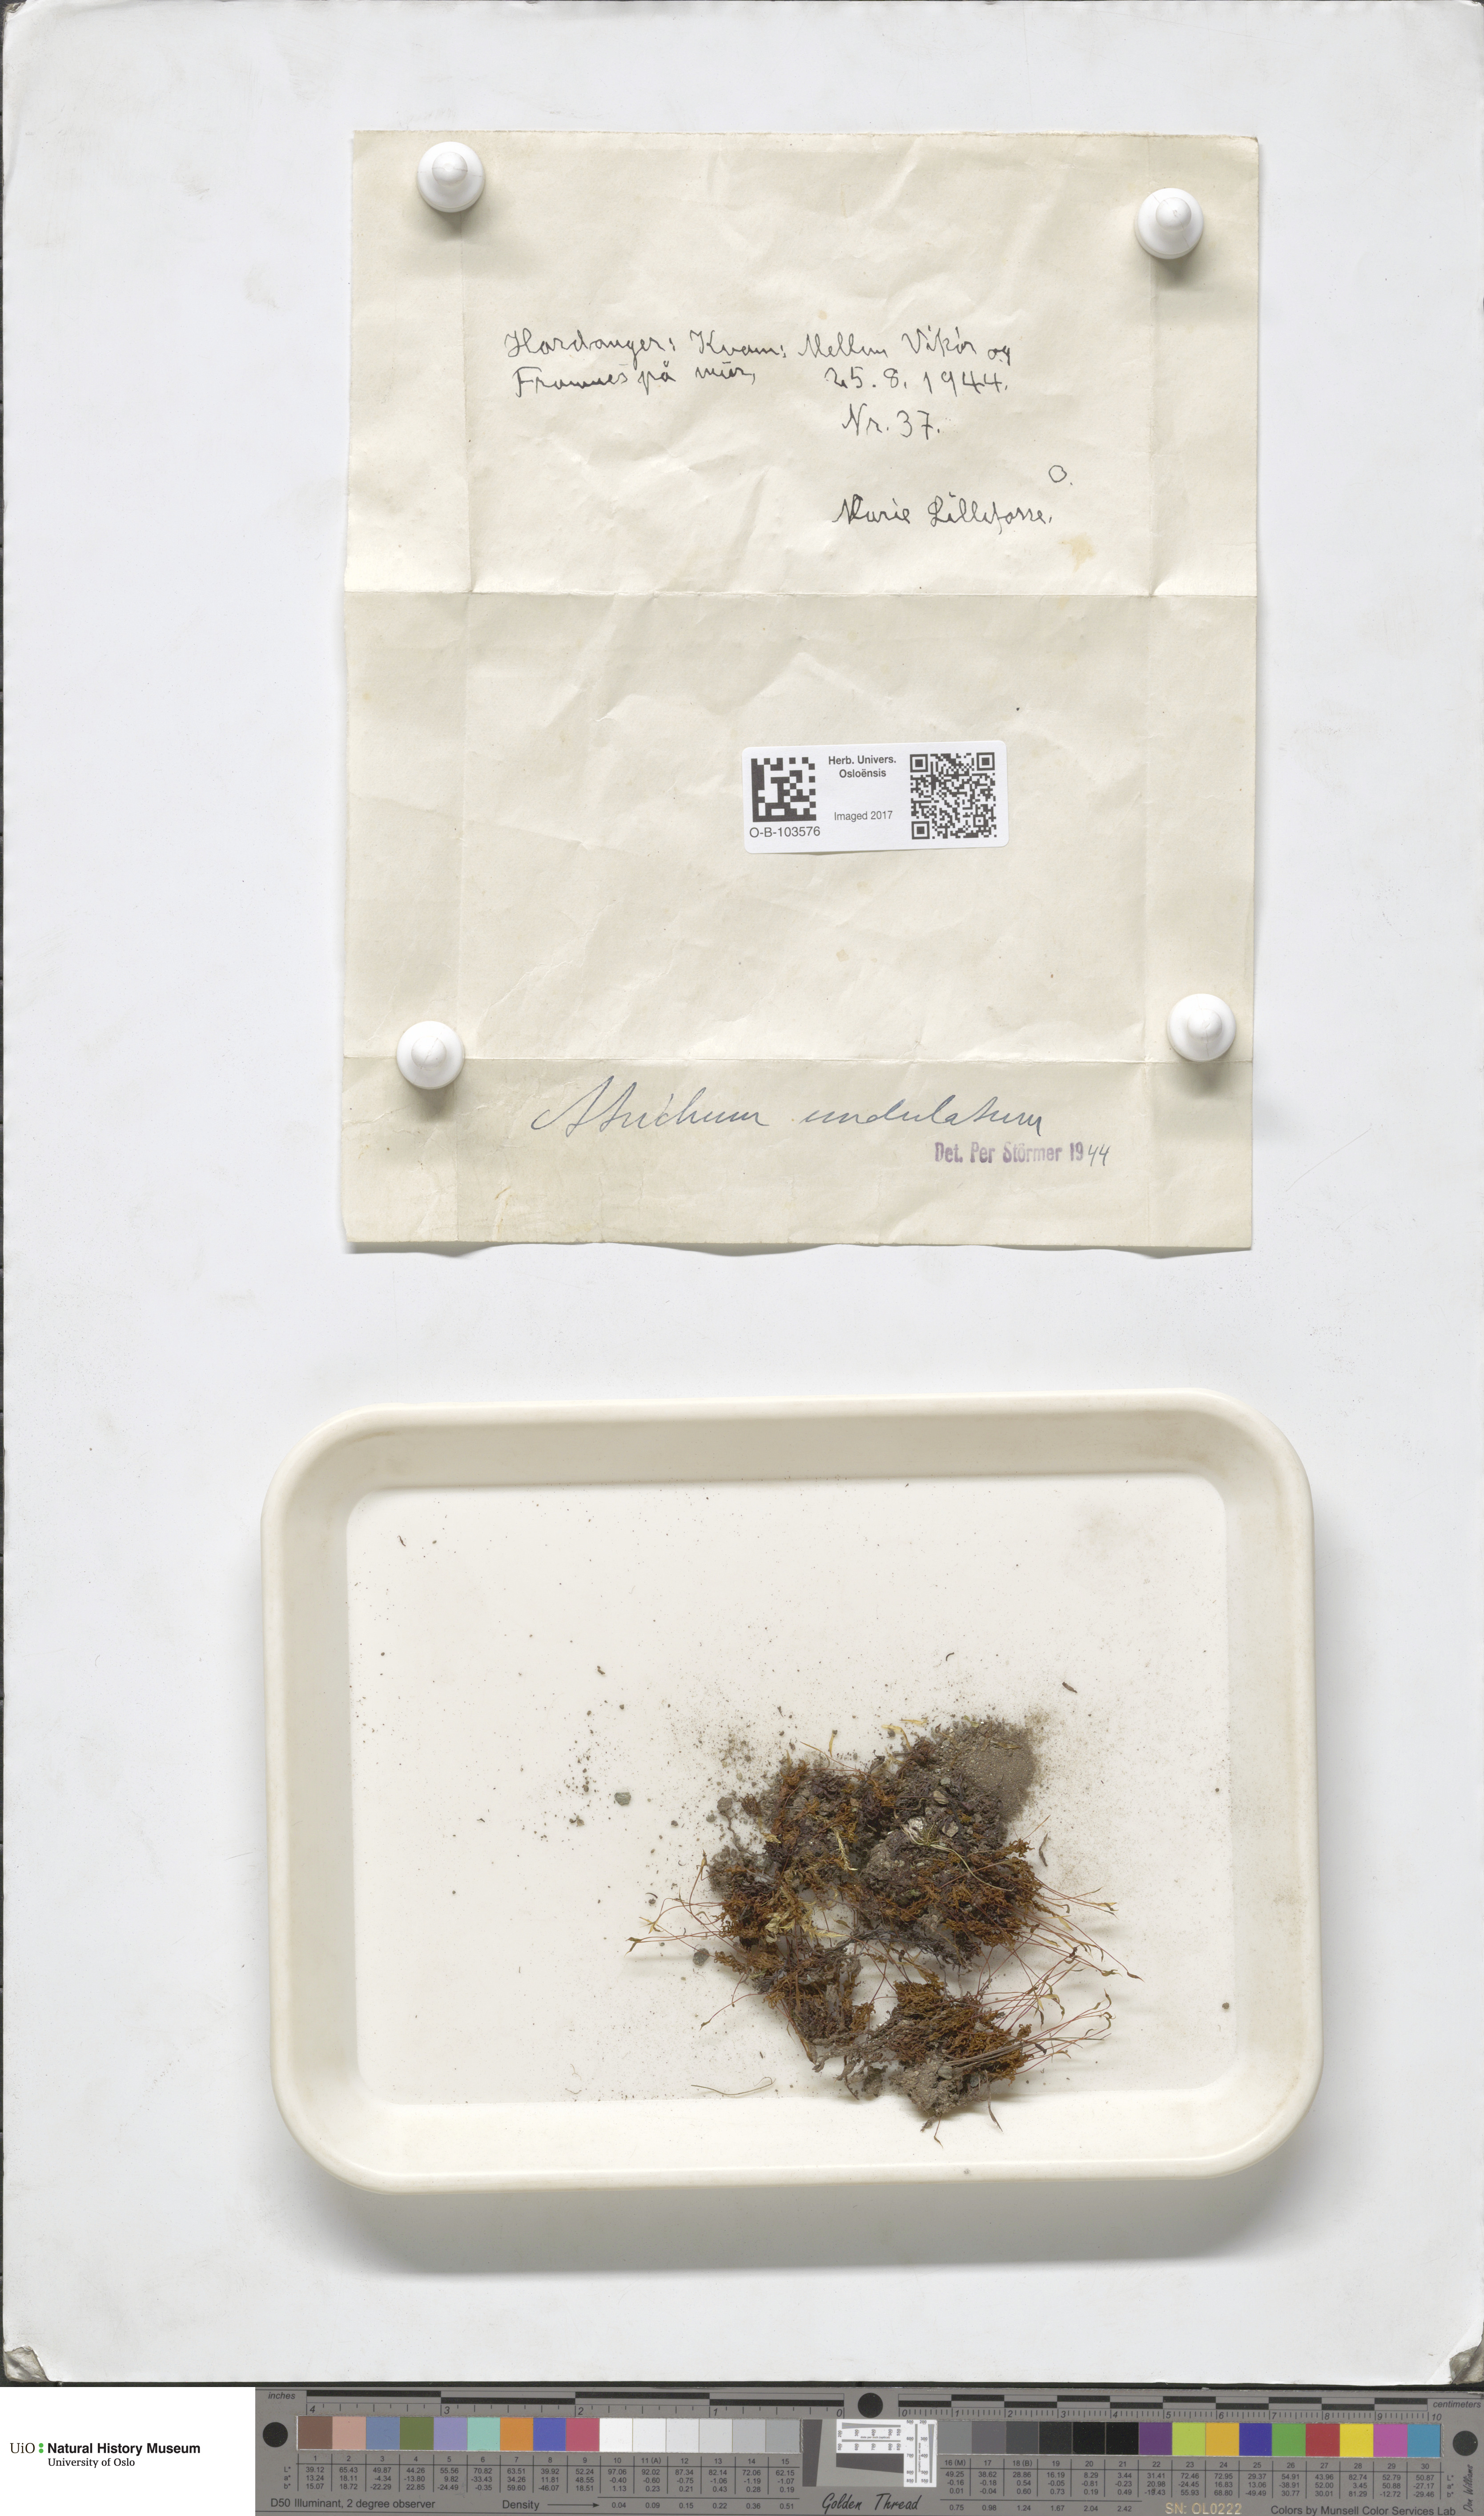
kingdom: Plantae
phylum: Bryophyta
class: Polytrichopsida
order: Polytrichales
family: Polytrichaceae
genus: Atrichum
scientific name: Atrichum undulatum
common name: Common smoothcap
